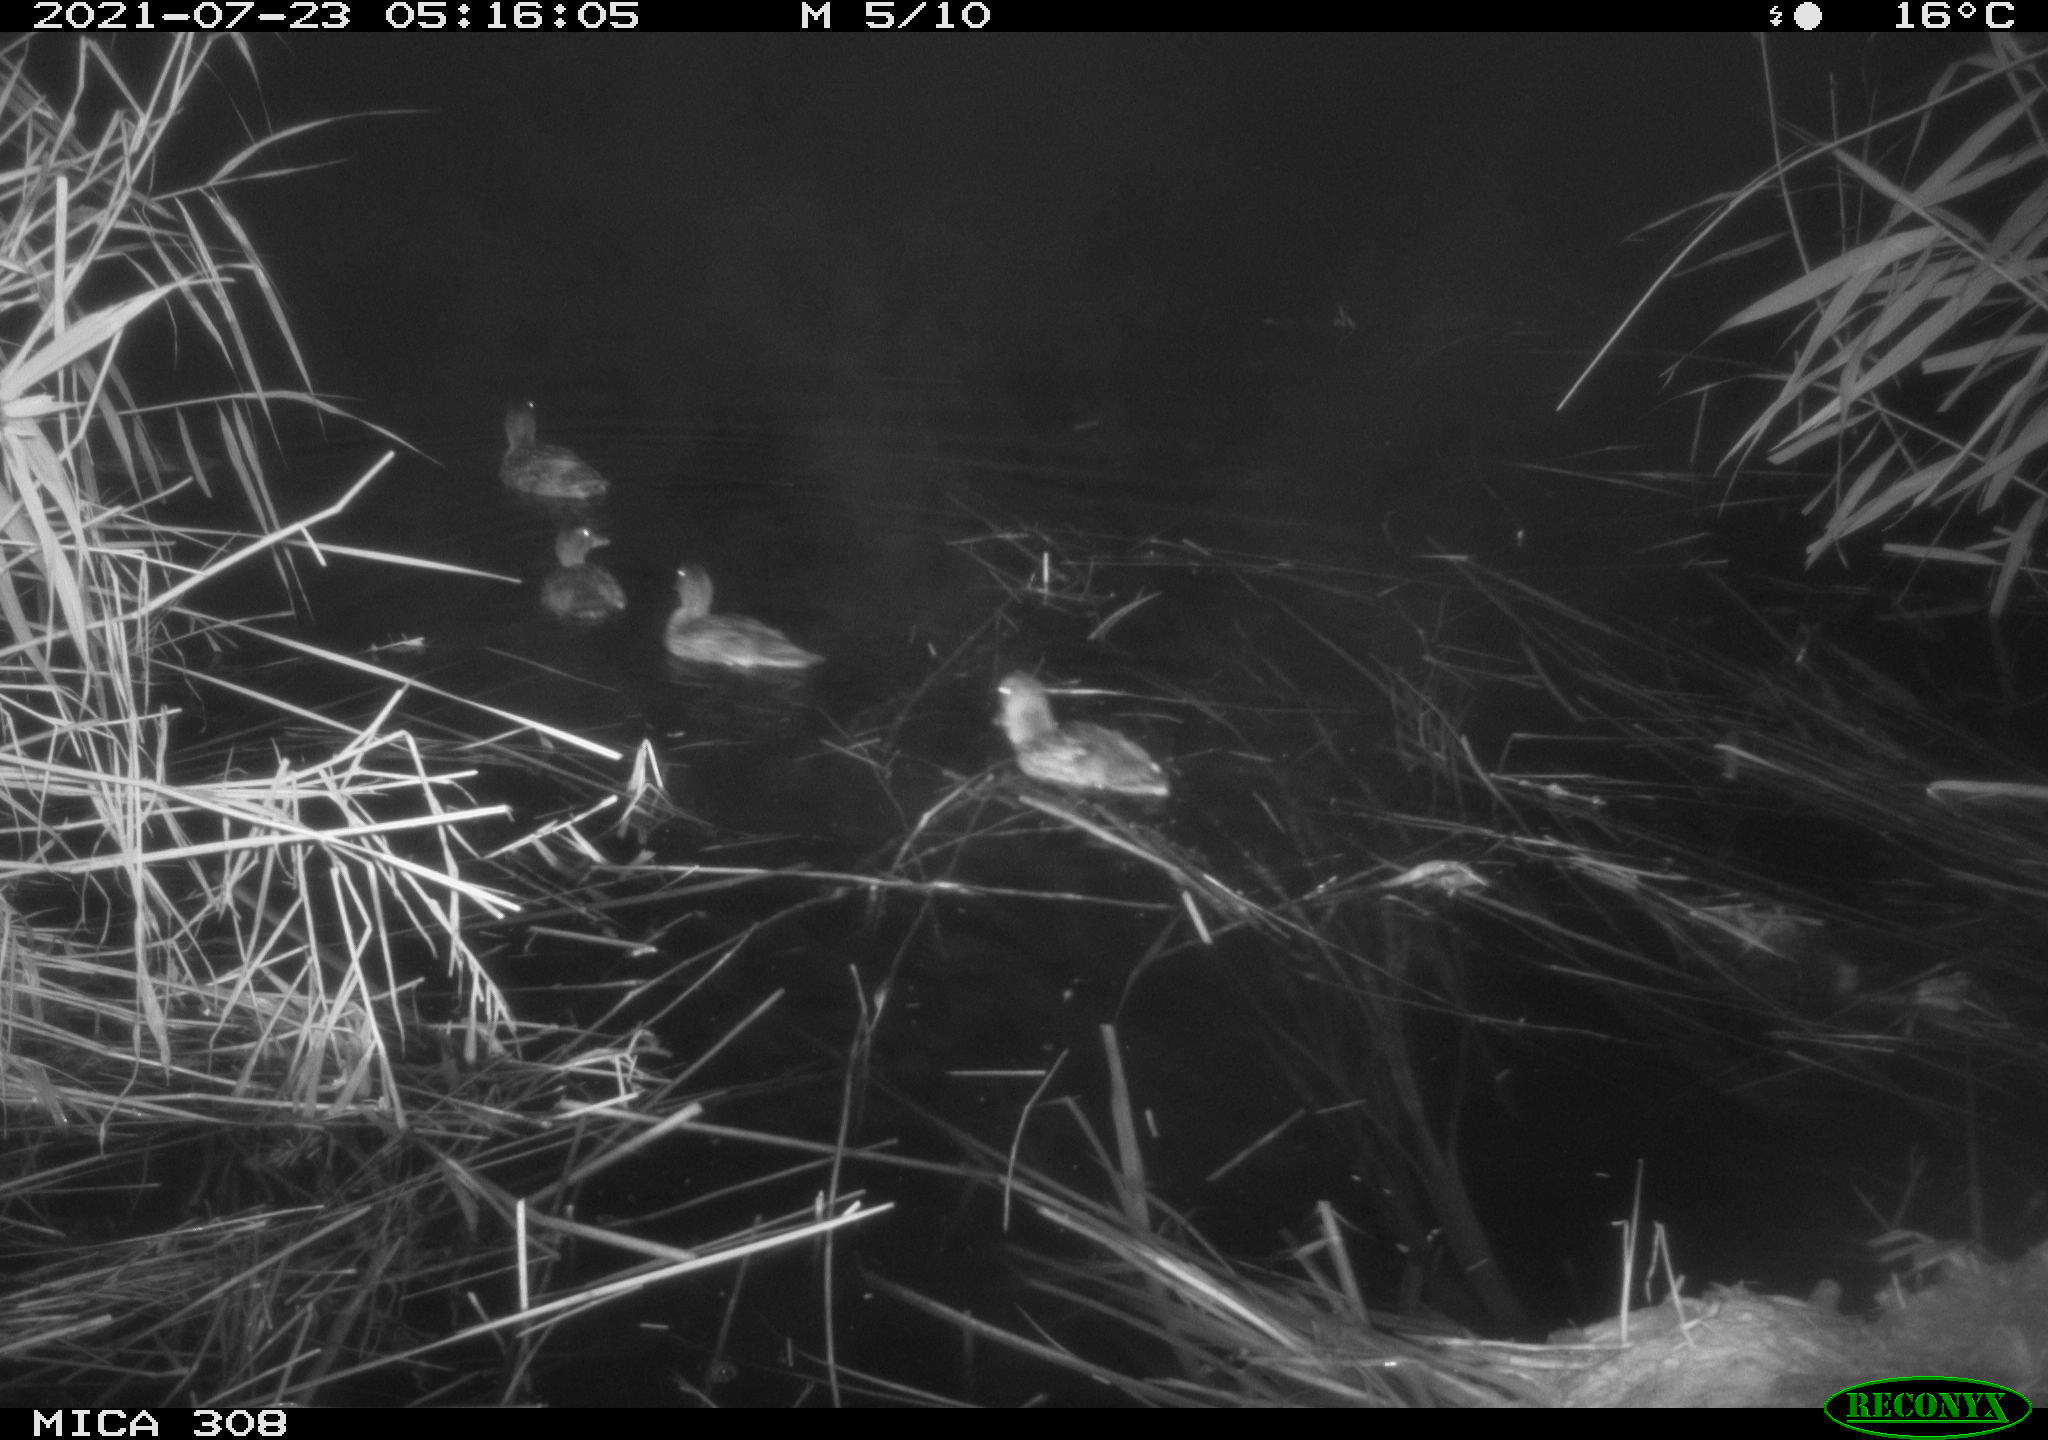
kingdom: Animalia
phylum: Chordata
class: Aves
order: Anseriformes
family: Anatidae
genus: Anas
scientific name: Anas platyrhynchos
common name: Mallard
